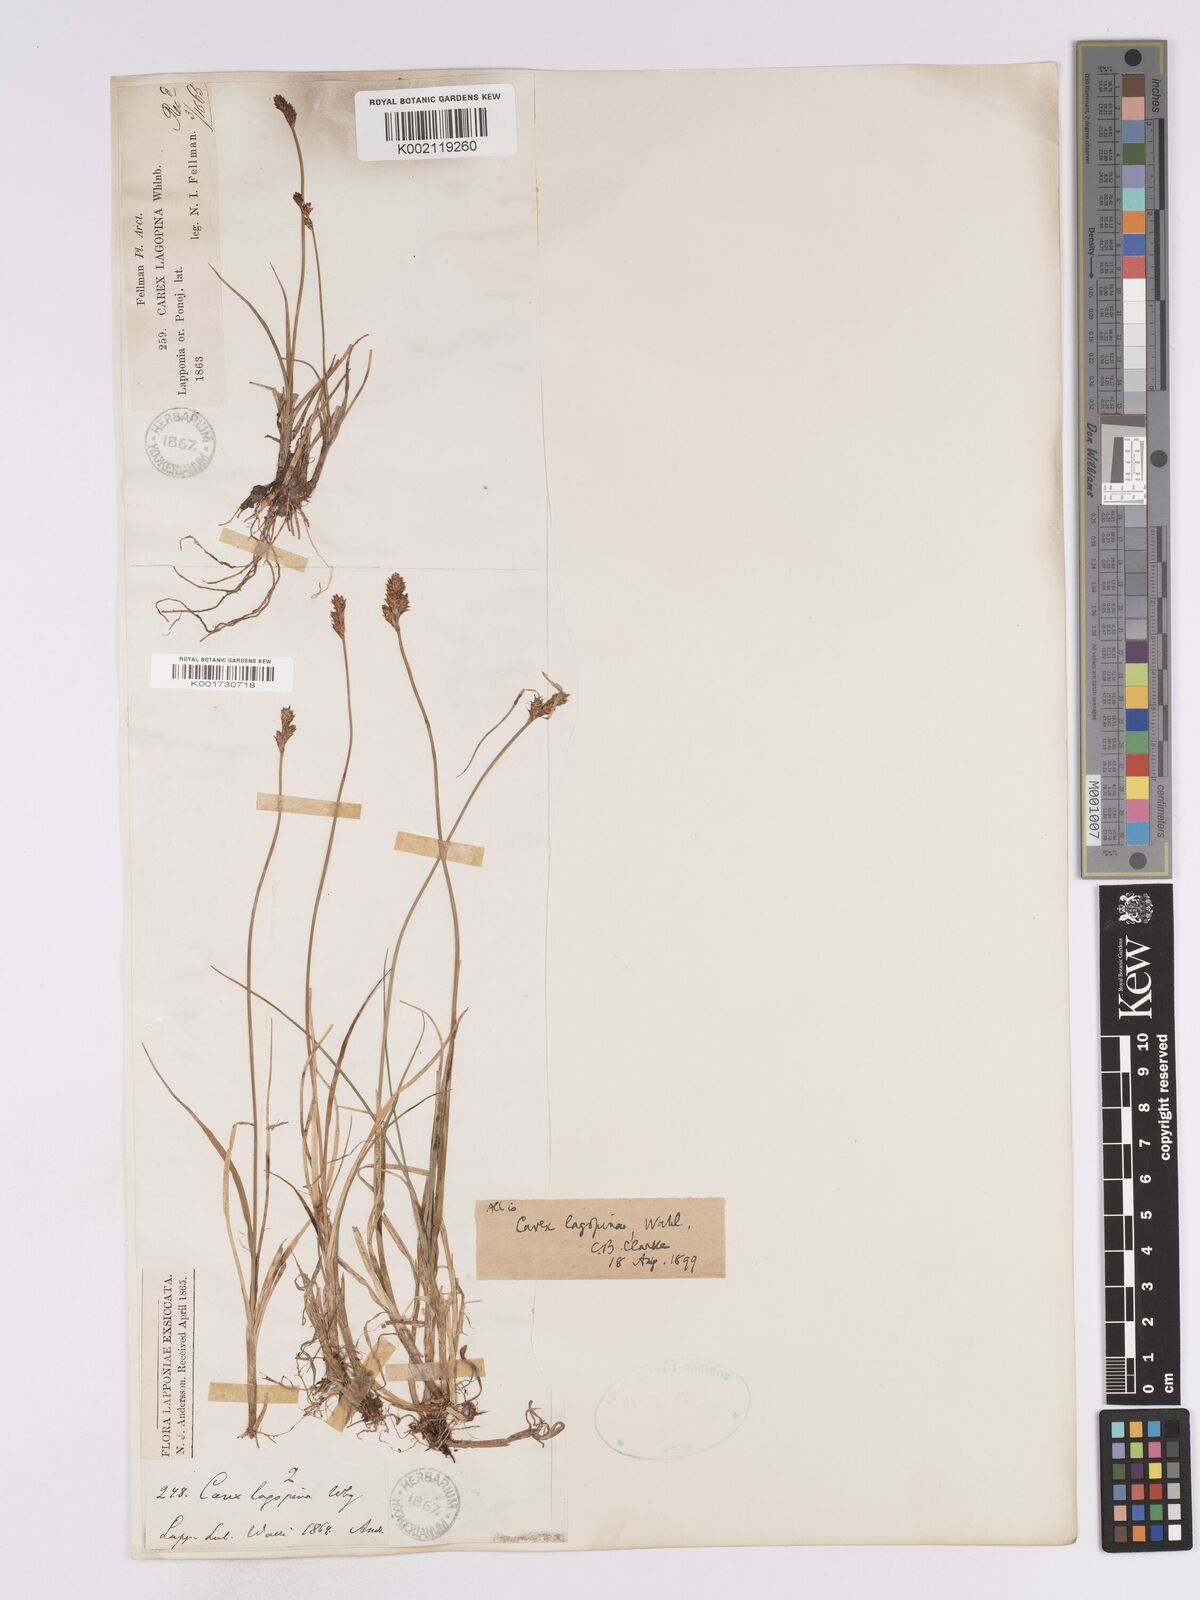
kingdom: Plantae
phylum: Tracheophyta
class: Liliopsida
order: Poales
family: Cyperaceae
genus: Carex
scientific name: Carex lachenalii
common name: Hare's-foot sedge
